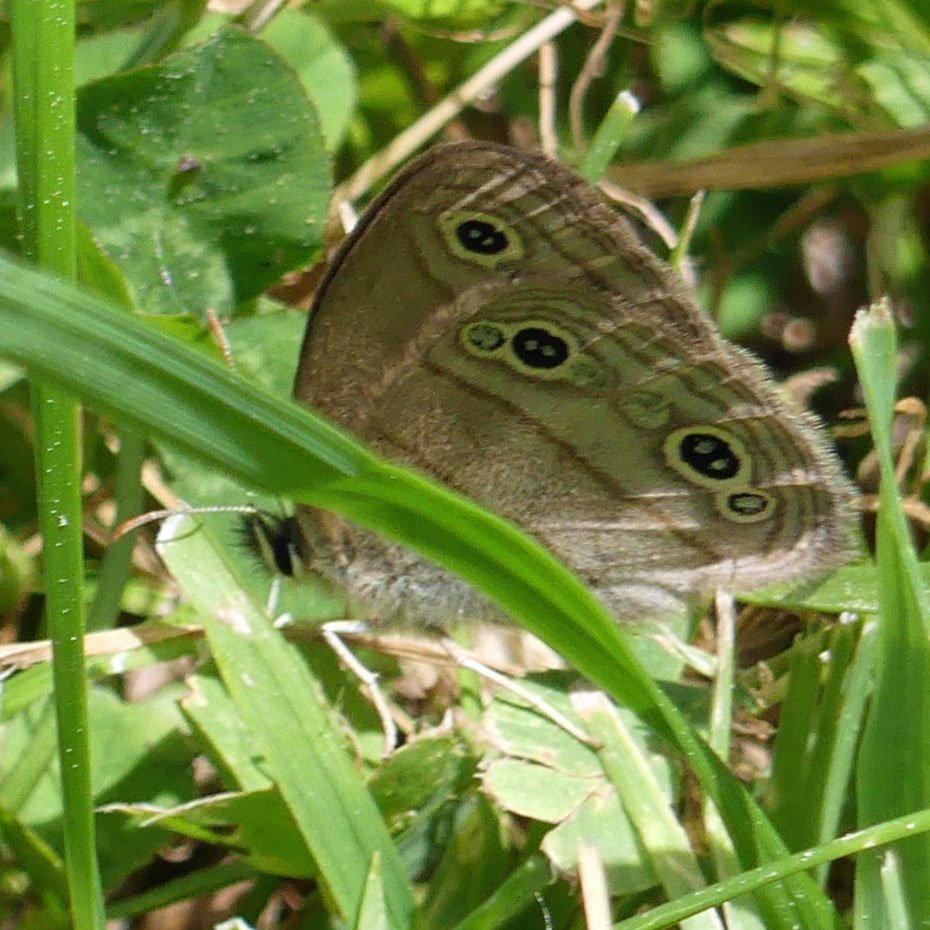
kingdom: Animalia
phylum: Arthropoda
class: Insecta
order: Lepidoptera
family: Nymphalidae
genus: Euptychia
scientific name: Euptychia cymela
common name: Little Wood Satyr
